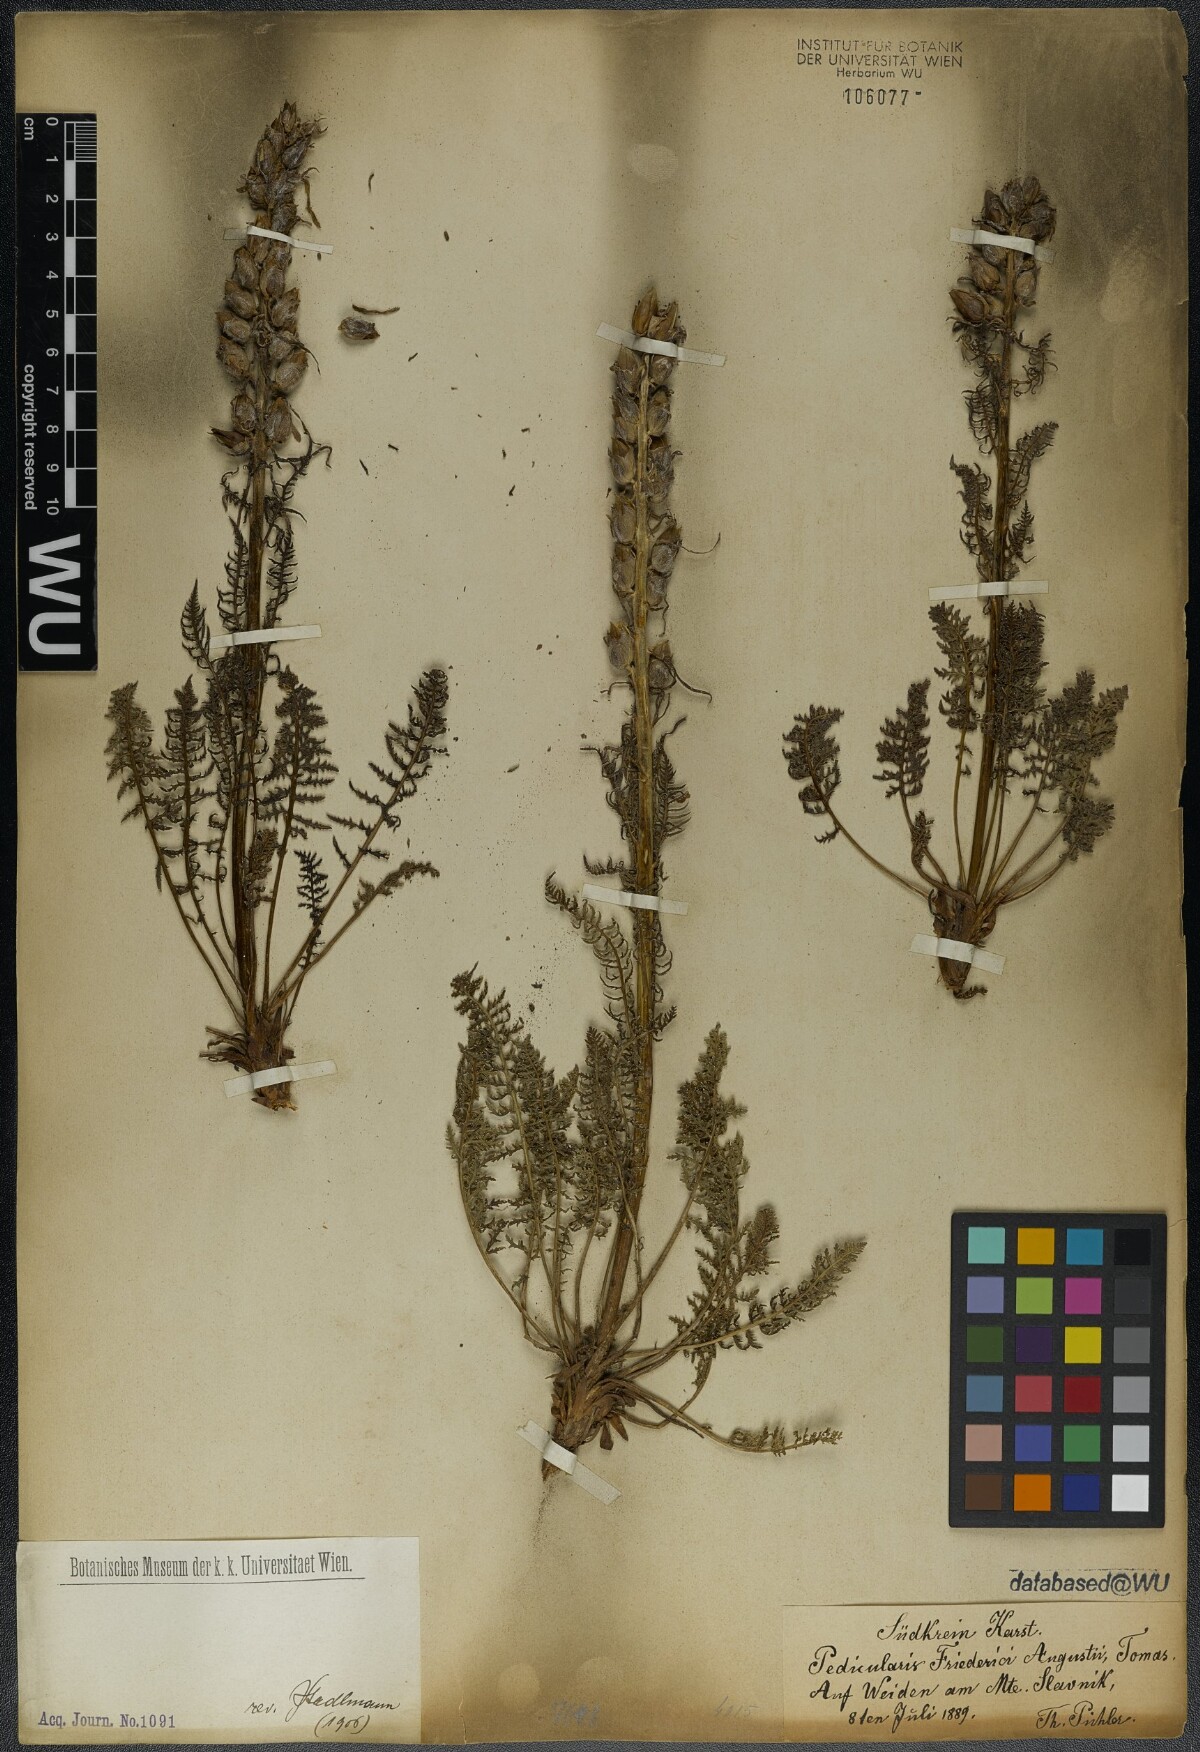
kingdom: Plantae
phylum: Tracheophyta
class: Magnoliopsida
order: Lamiales
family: Orobanchaceae
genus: Pedicularis
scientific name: Pedicularis friderici-augusti
